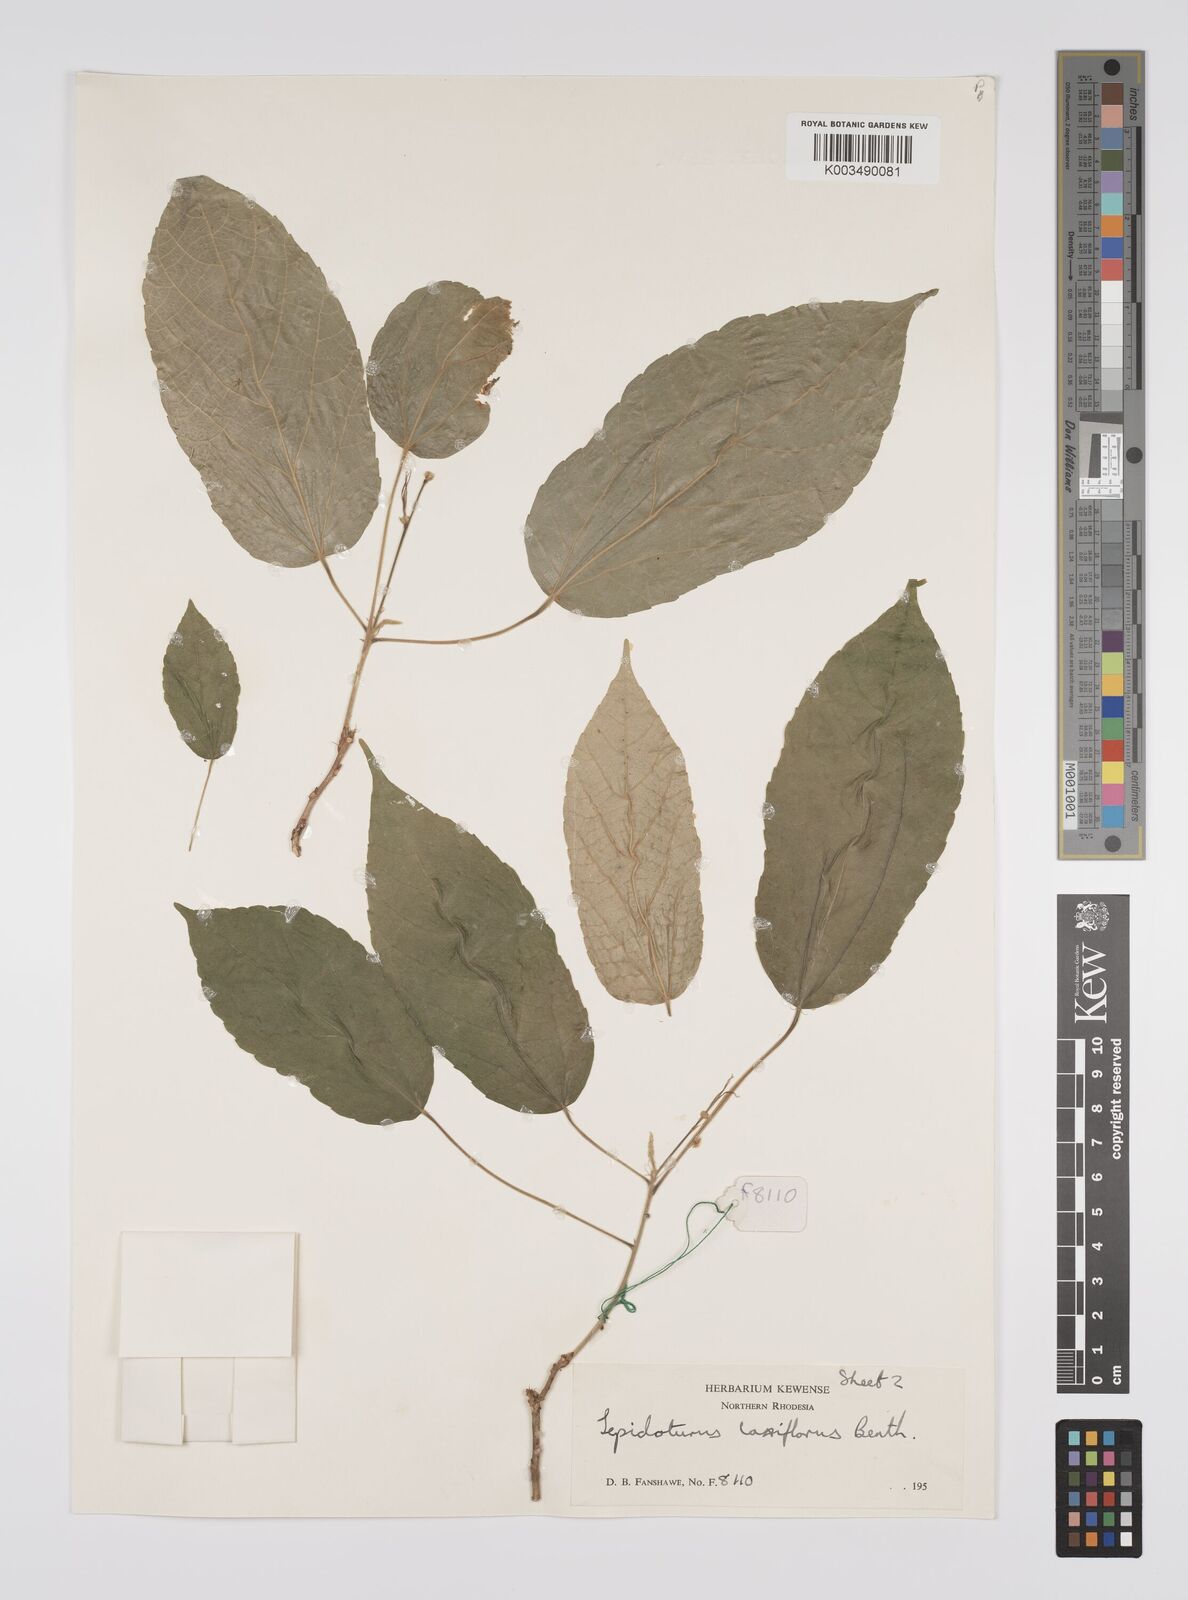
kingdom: Plantae
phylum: Tracheophyta
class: Magnoliopsida
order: Malpighiales
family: Euphorbiaceae
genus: Alchornea
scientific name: Alchornea laxiflora
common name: Lowveld bead-string
